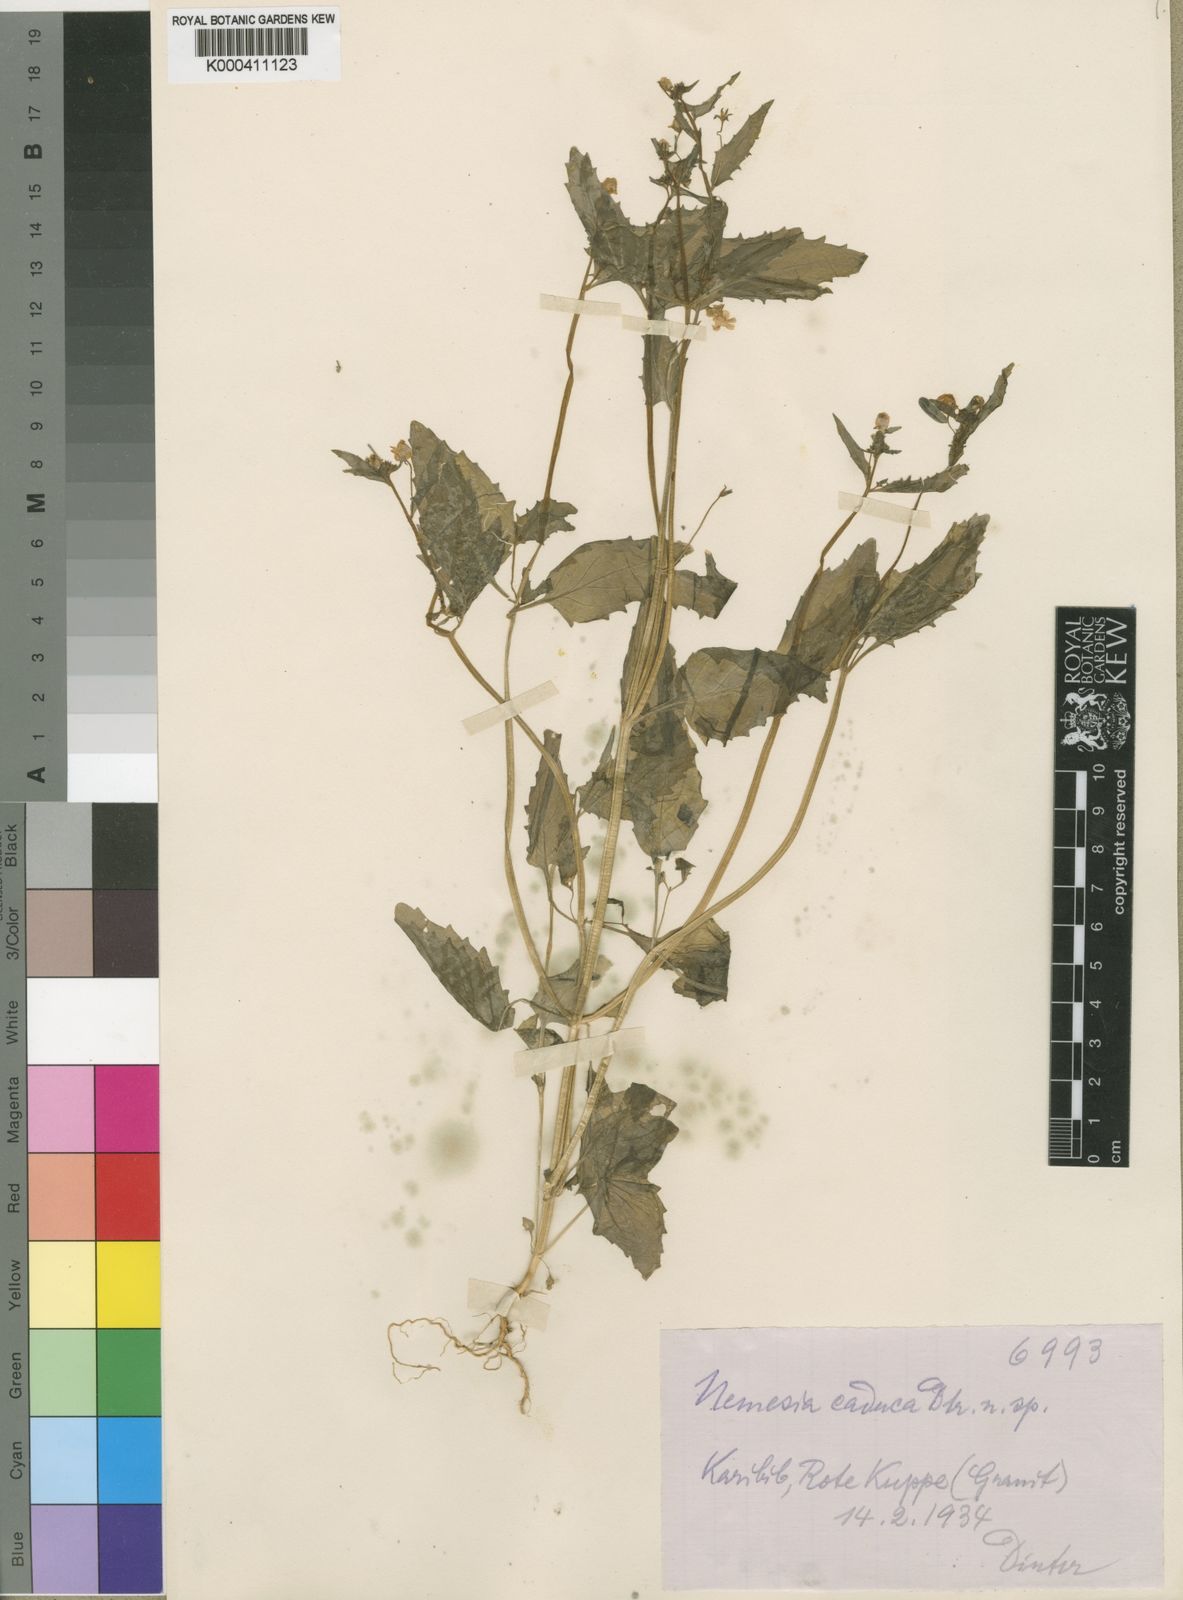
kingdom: Plantae
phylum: Tracheophyta
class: Magnoliopsida
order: Lamiales
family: Scrophulariaceae
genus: Nemesia
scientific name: Nemesia
